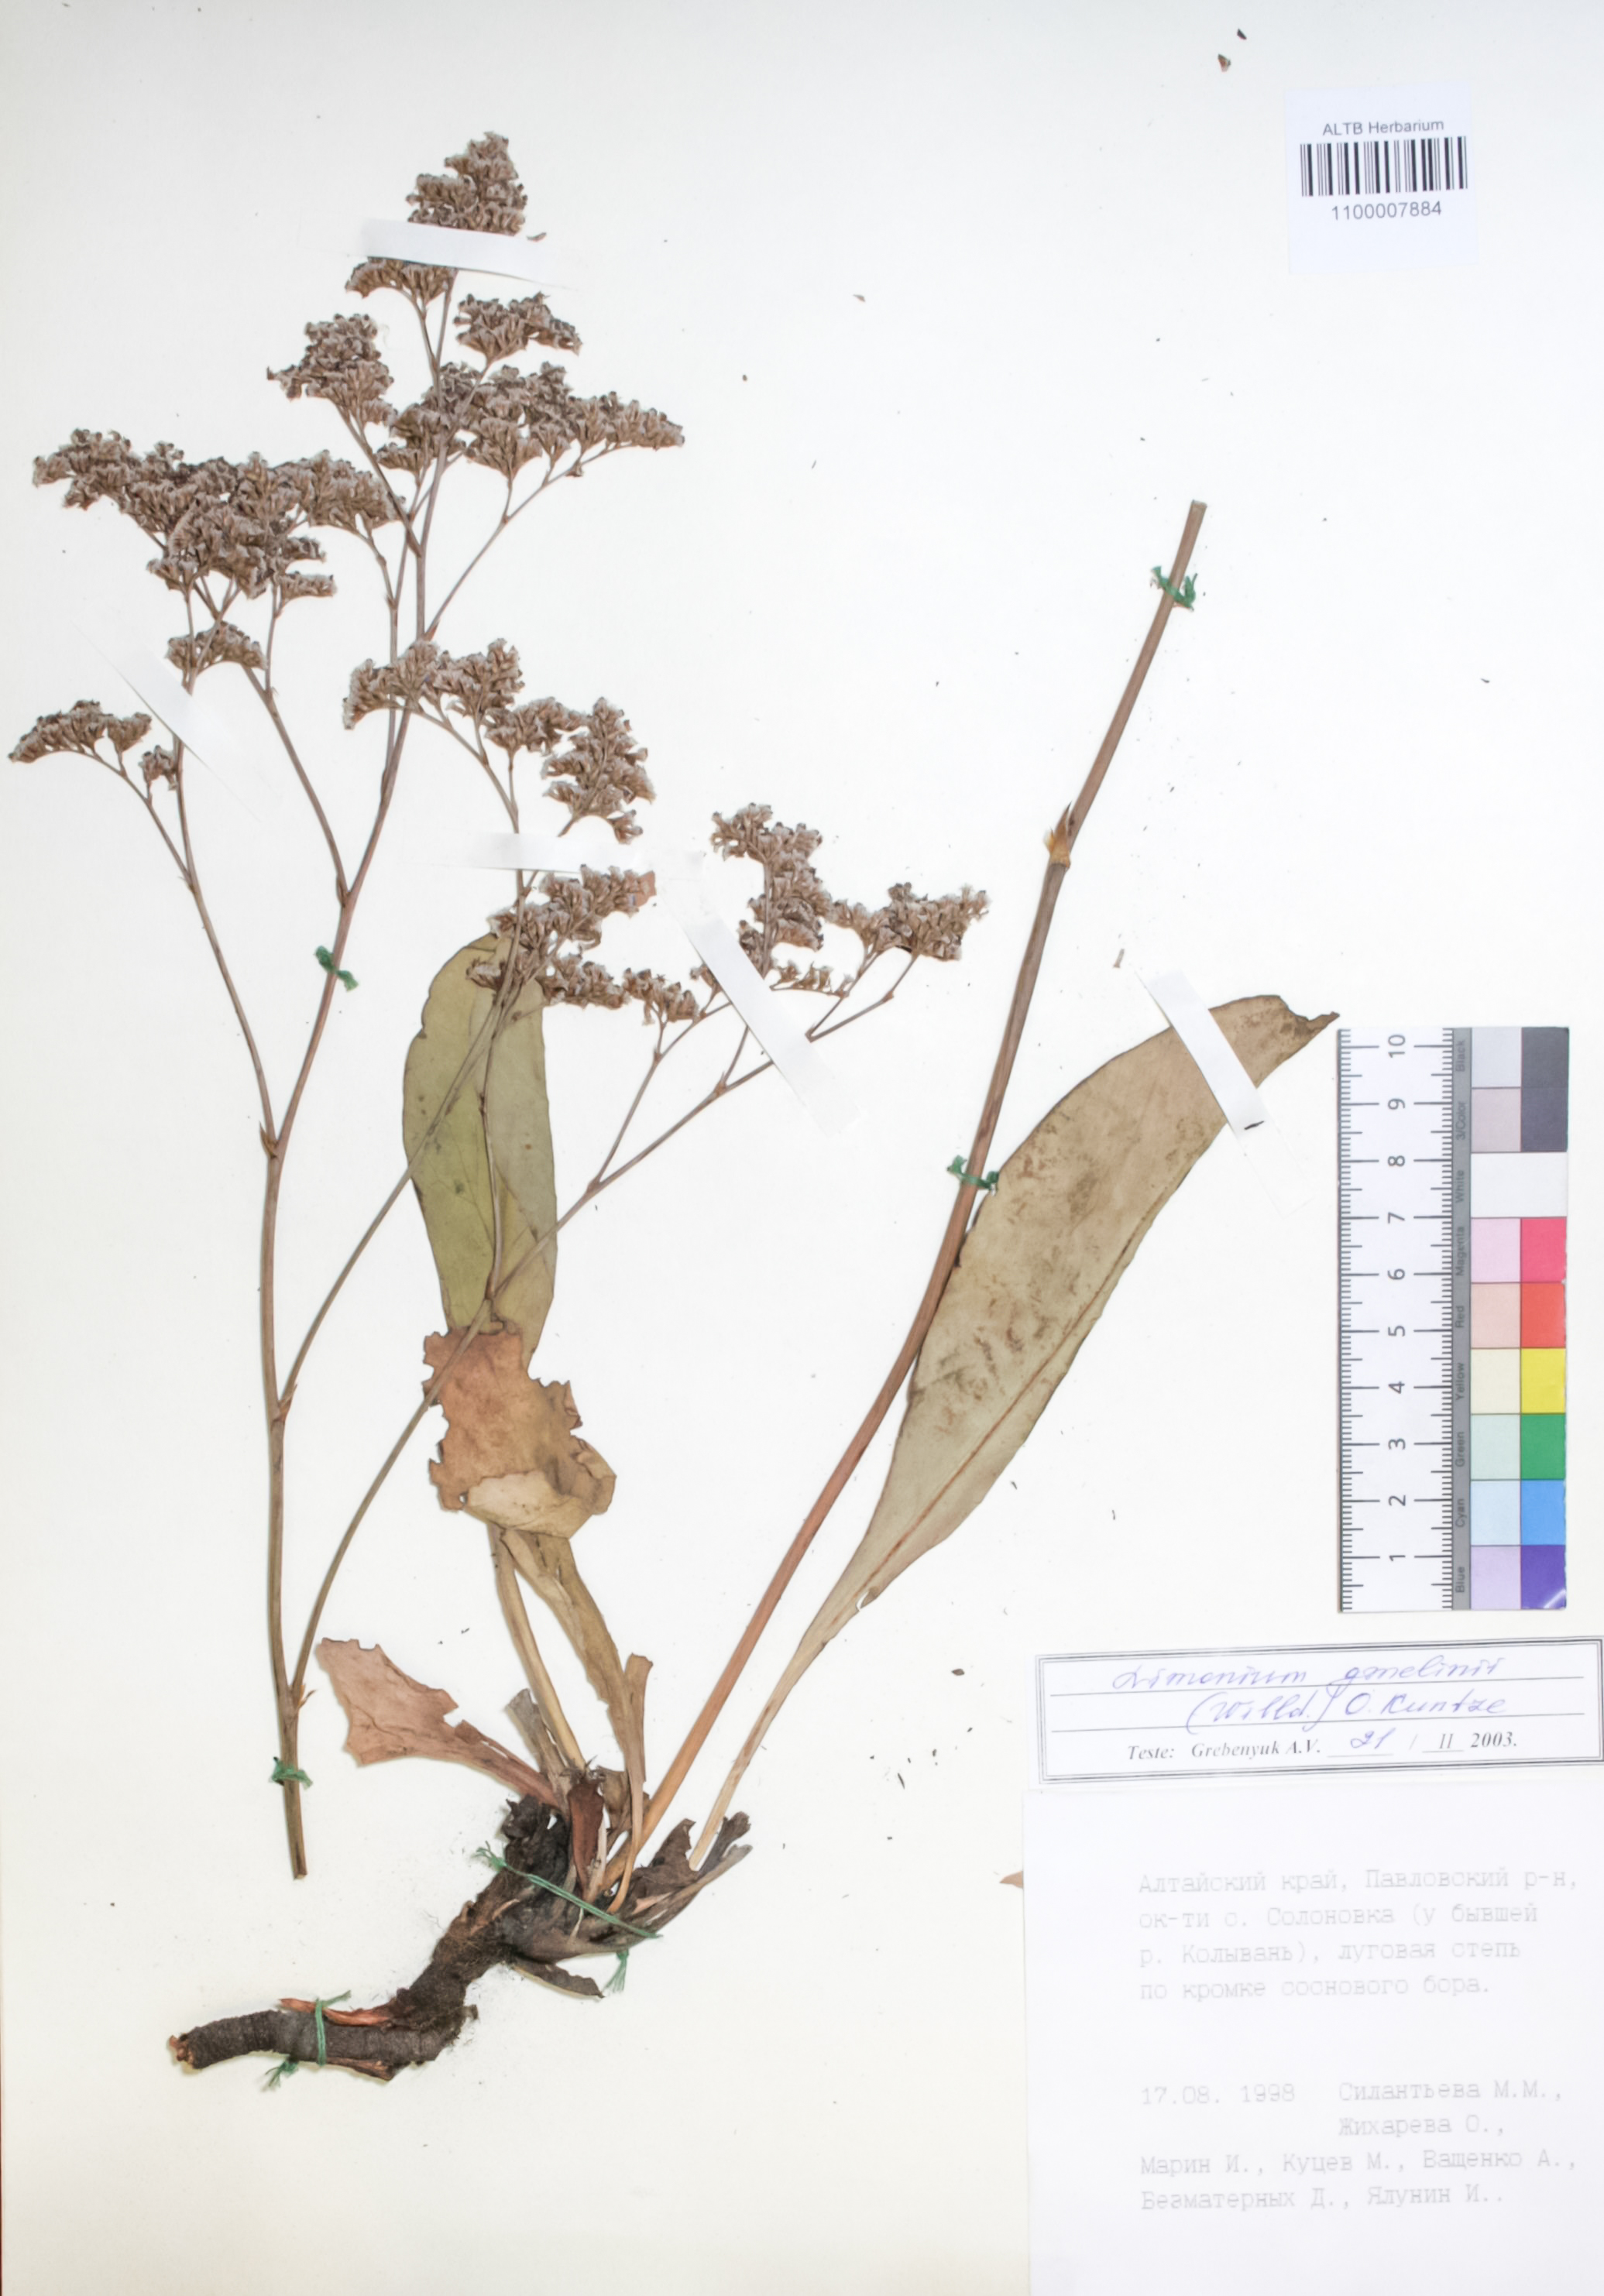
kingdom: Plantae
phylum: Tracheophyta
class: Magnoliopsida
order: Caryophyllales
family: Plumbaginaceae
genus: Limonium
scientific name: Limonium gmelini
